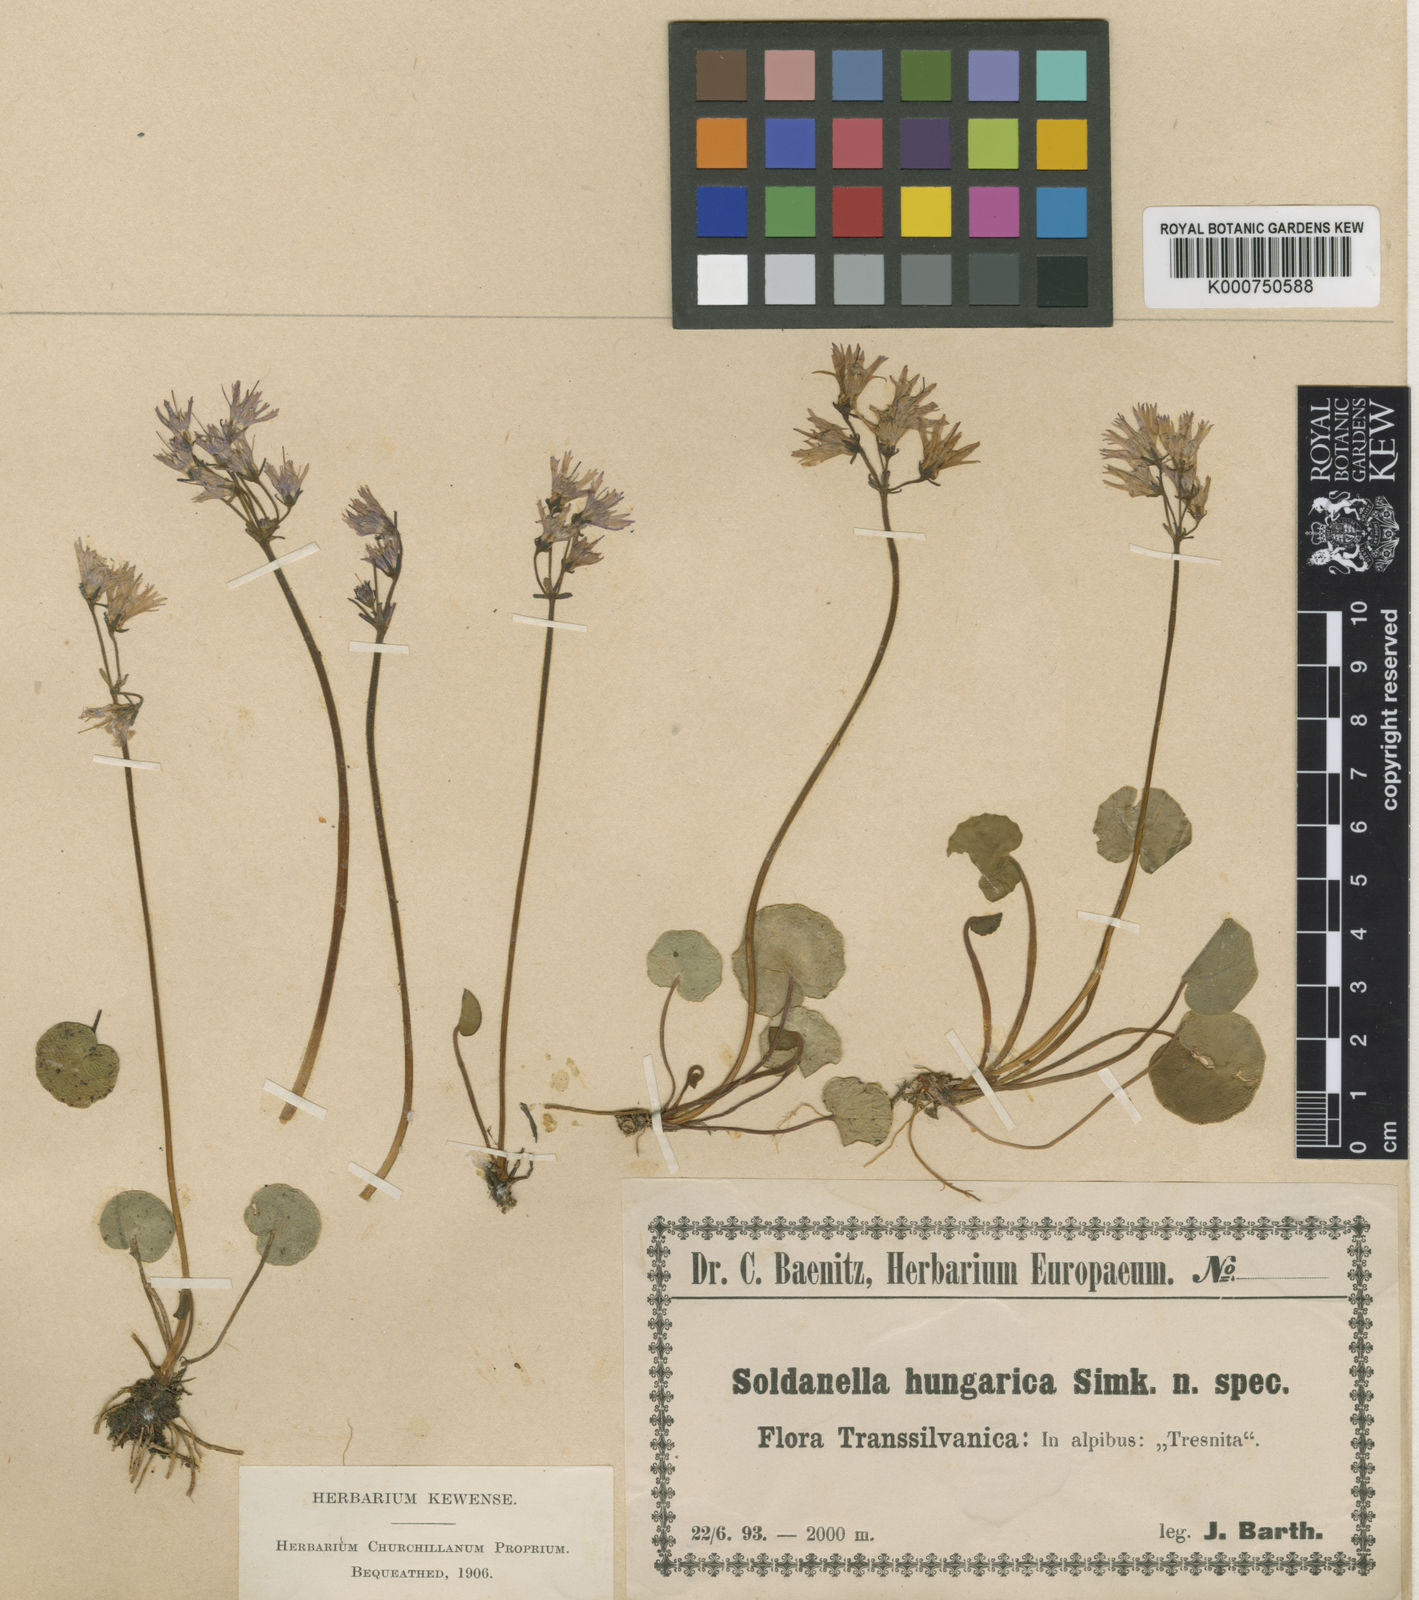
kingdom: Plantae
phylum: Tracheophyta
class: Magnoliopsida
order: Ericales
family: Primulaceae
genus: Soldanella
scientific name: Soldanella hungarica
